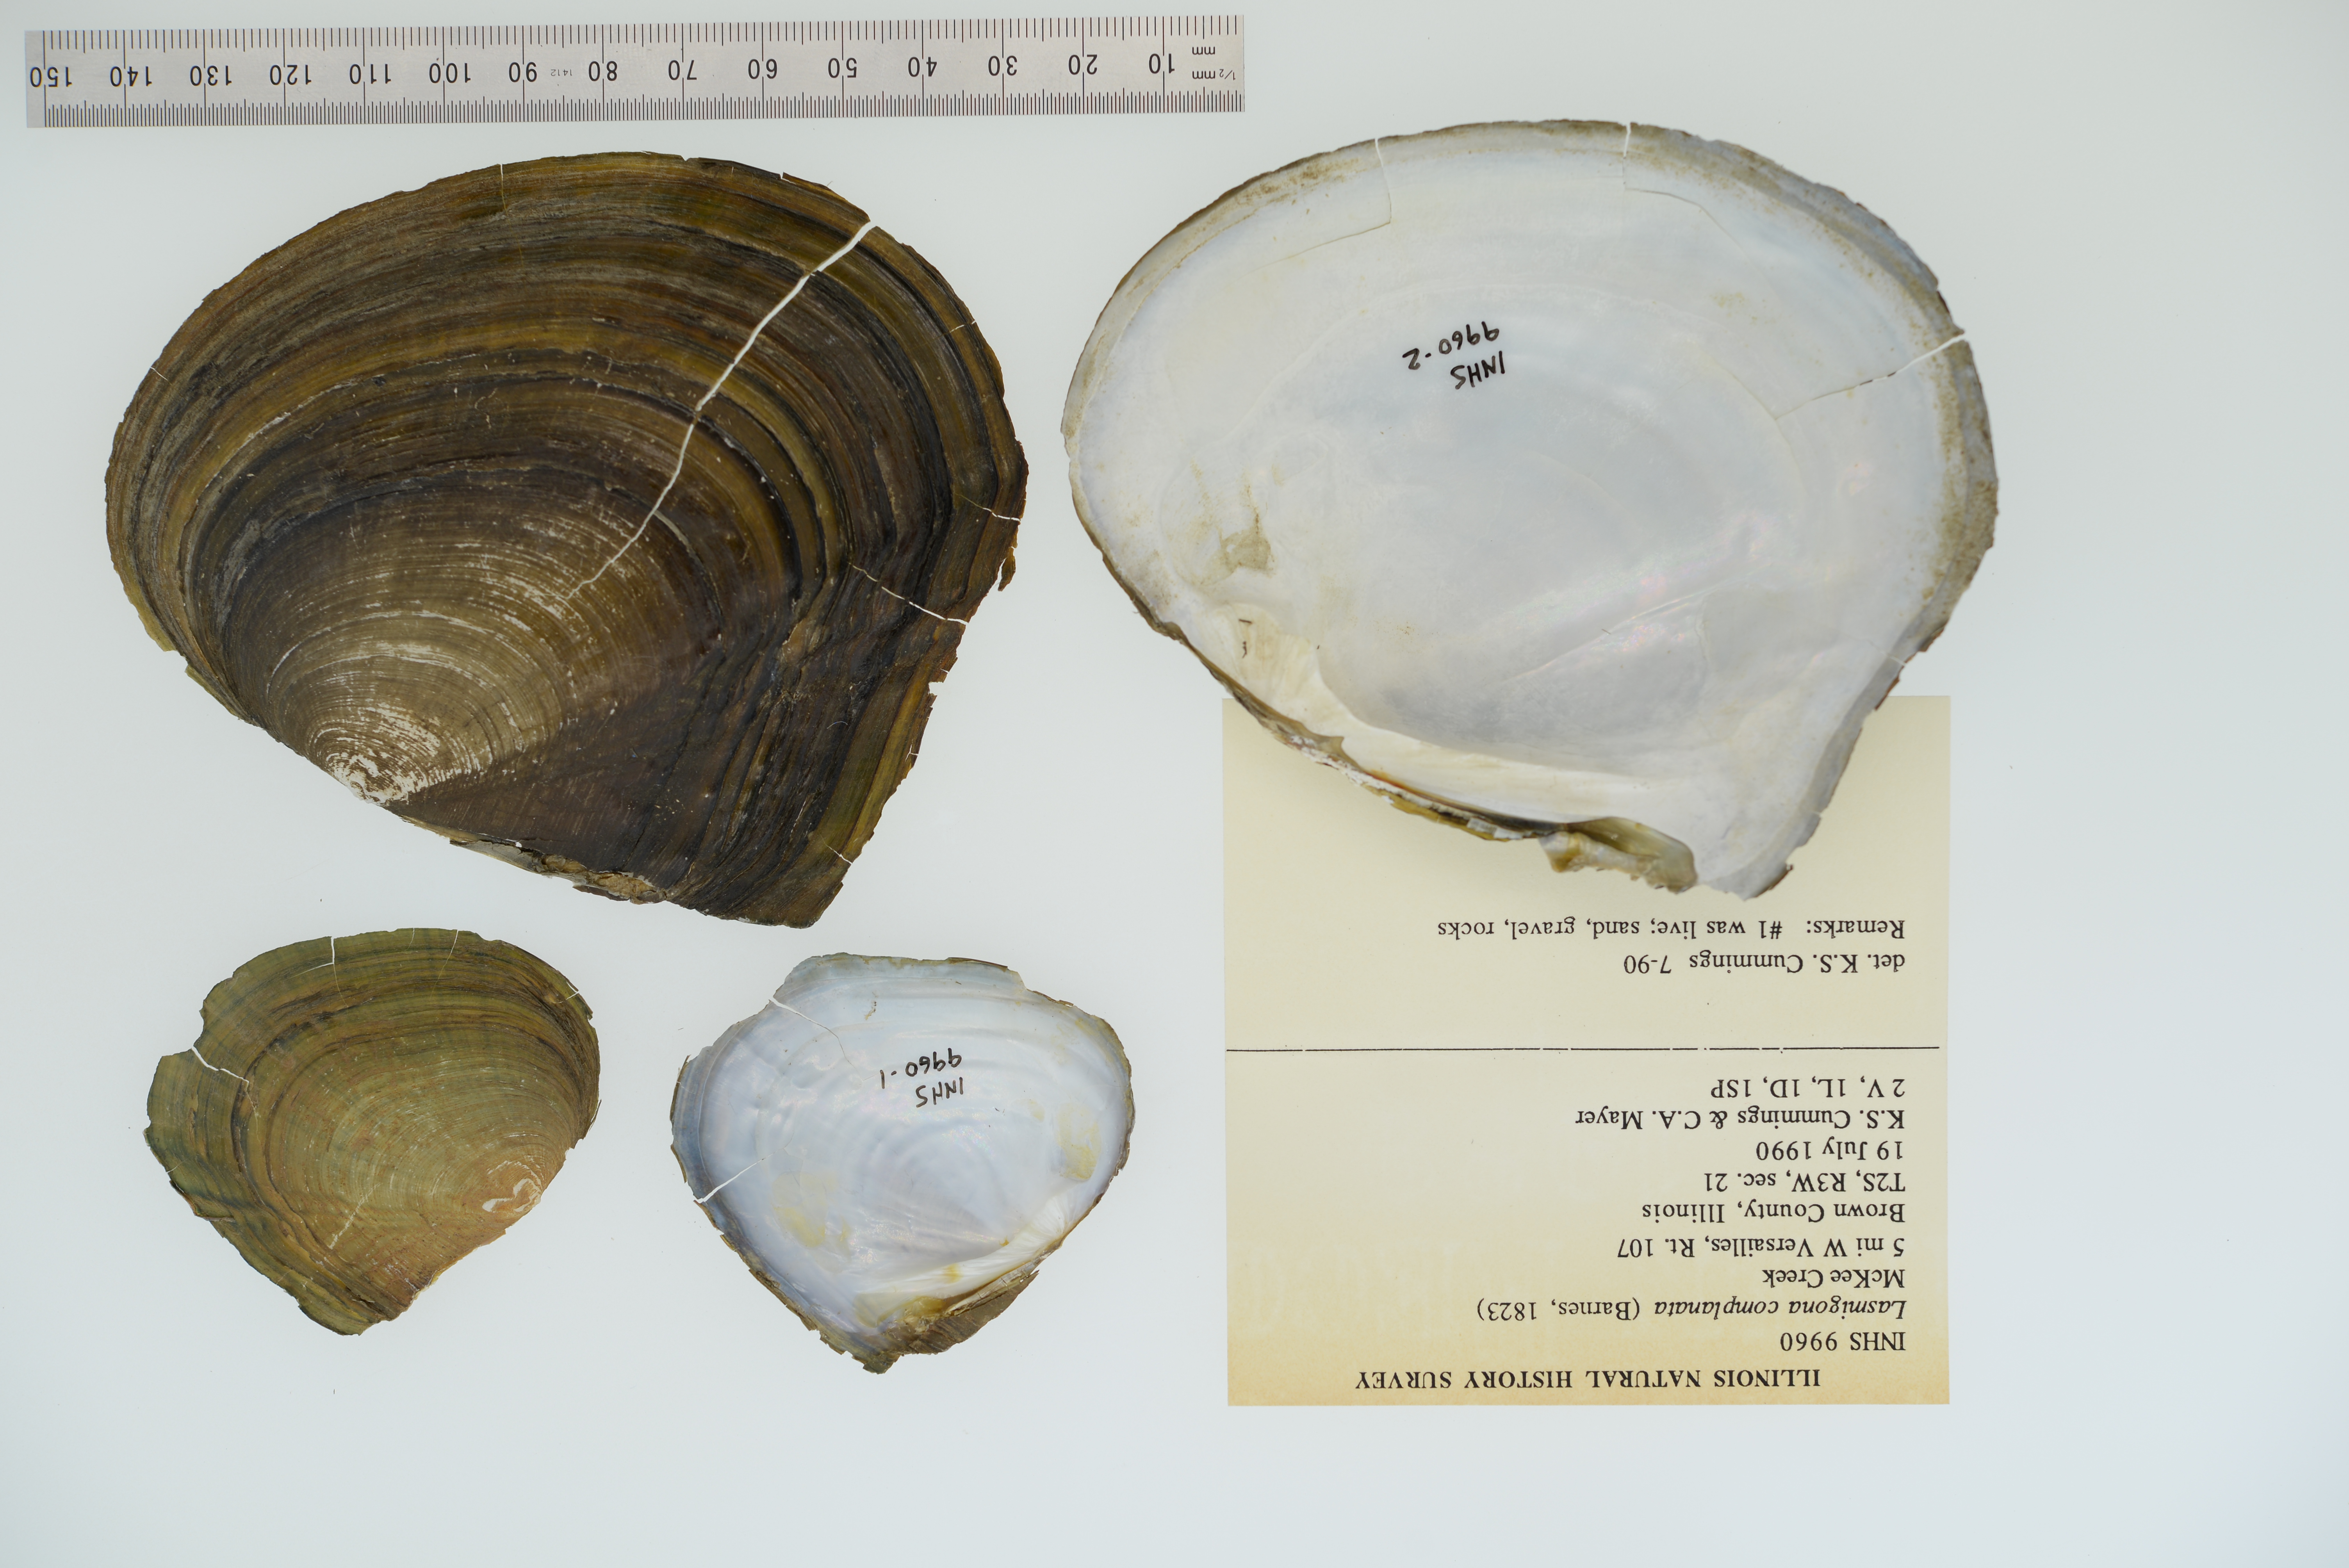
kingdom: Animalia
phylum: Mollusca
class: Bivalvia
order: Unionida
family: Unionidae
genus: Lasmigona
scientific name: Lasmigona complanata
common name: White heelsplitter
